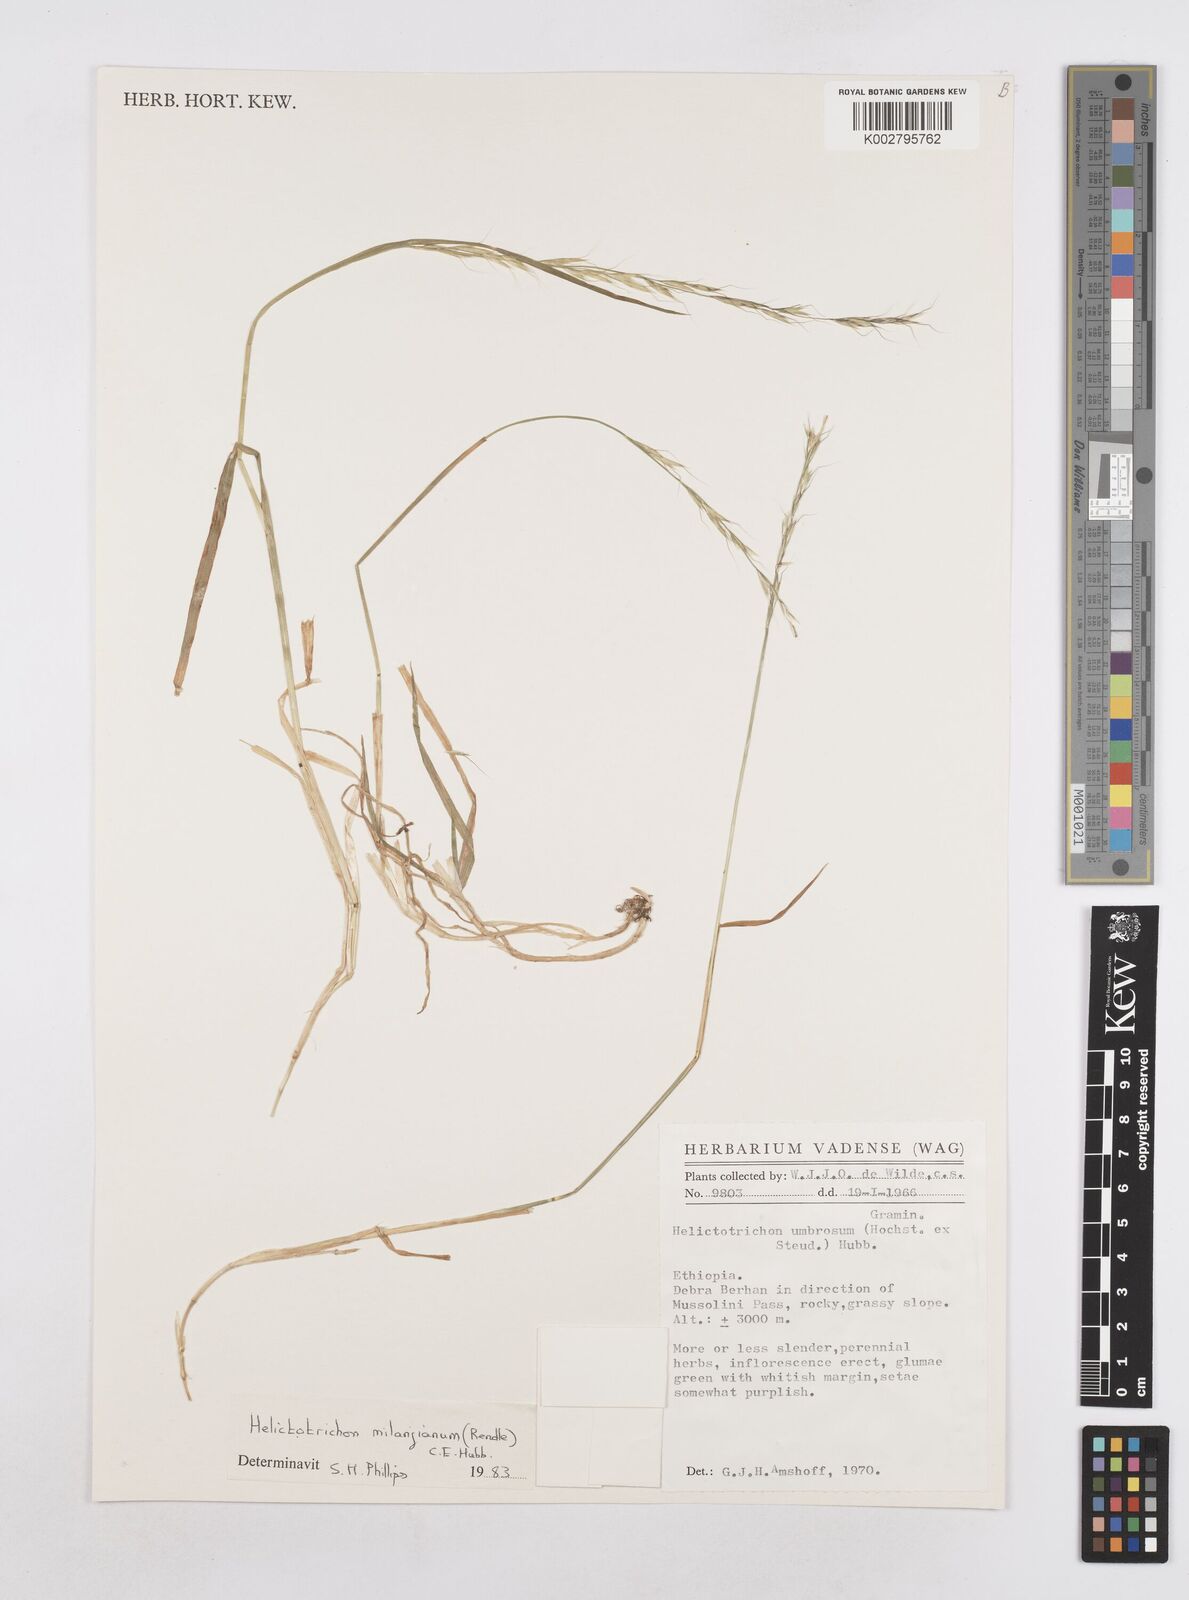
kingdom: Plantae
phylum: Tracheophyta
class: Liliopsida
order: Poales
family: Poaceae
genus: Trisetopsis
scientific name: Trisetopsis milanjiana
